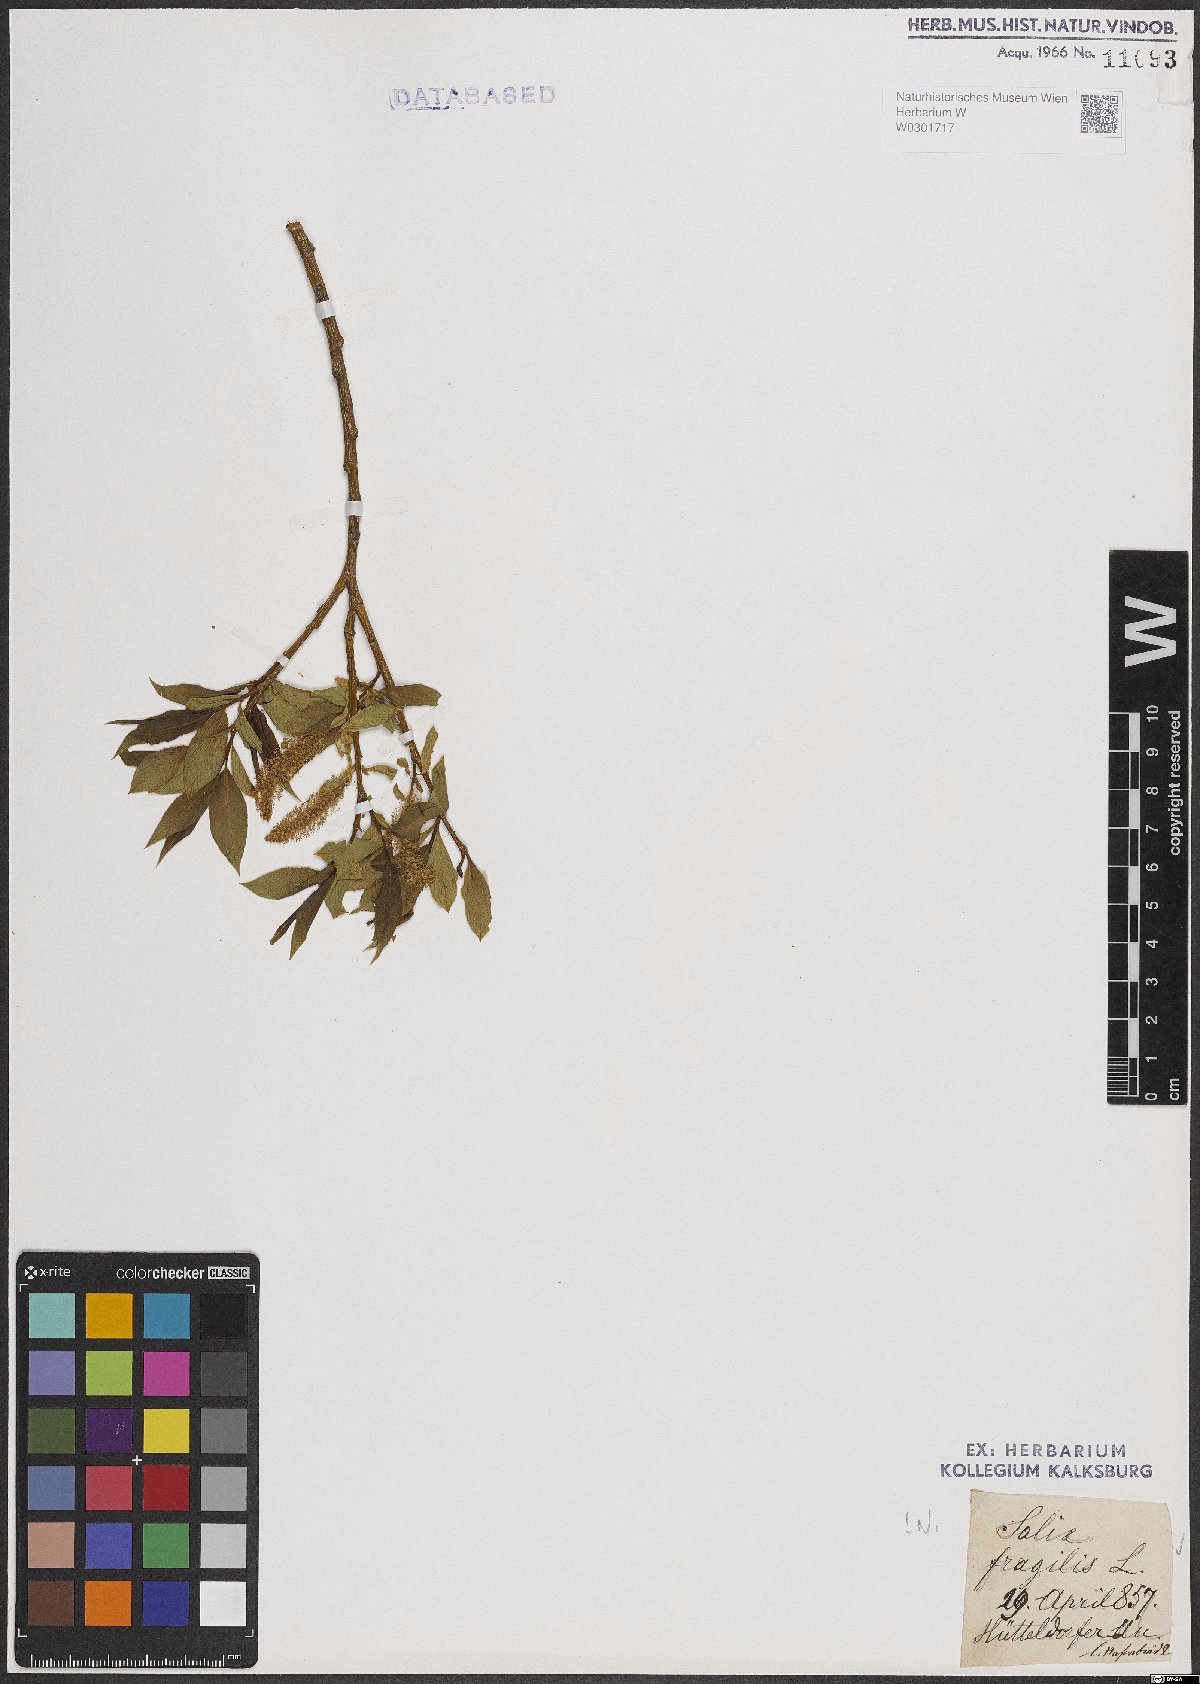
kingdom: Plantae
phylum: Tracheophyta
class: Magnoliopsida
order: Malpighiales
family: Salicaceae
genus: Salix
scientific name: Salix fragilis
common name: Crack willow
